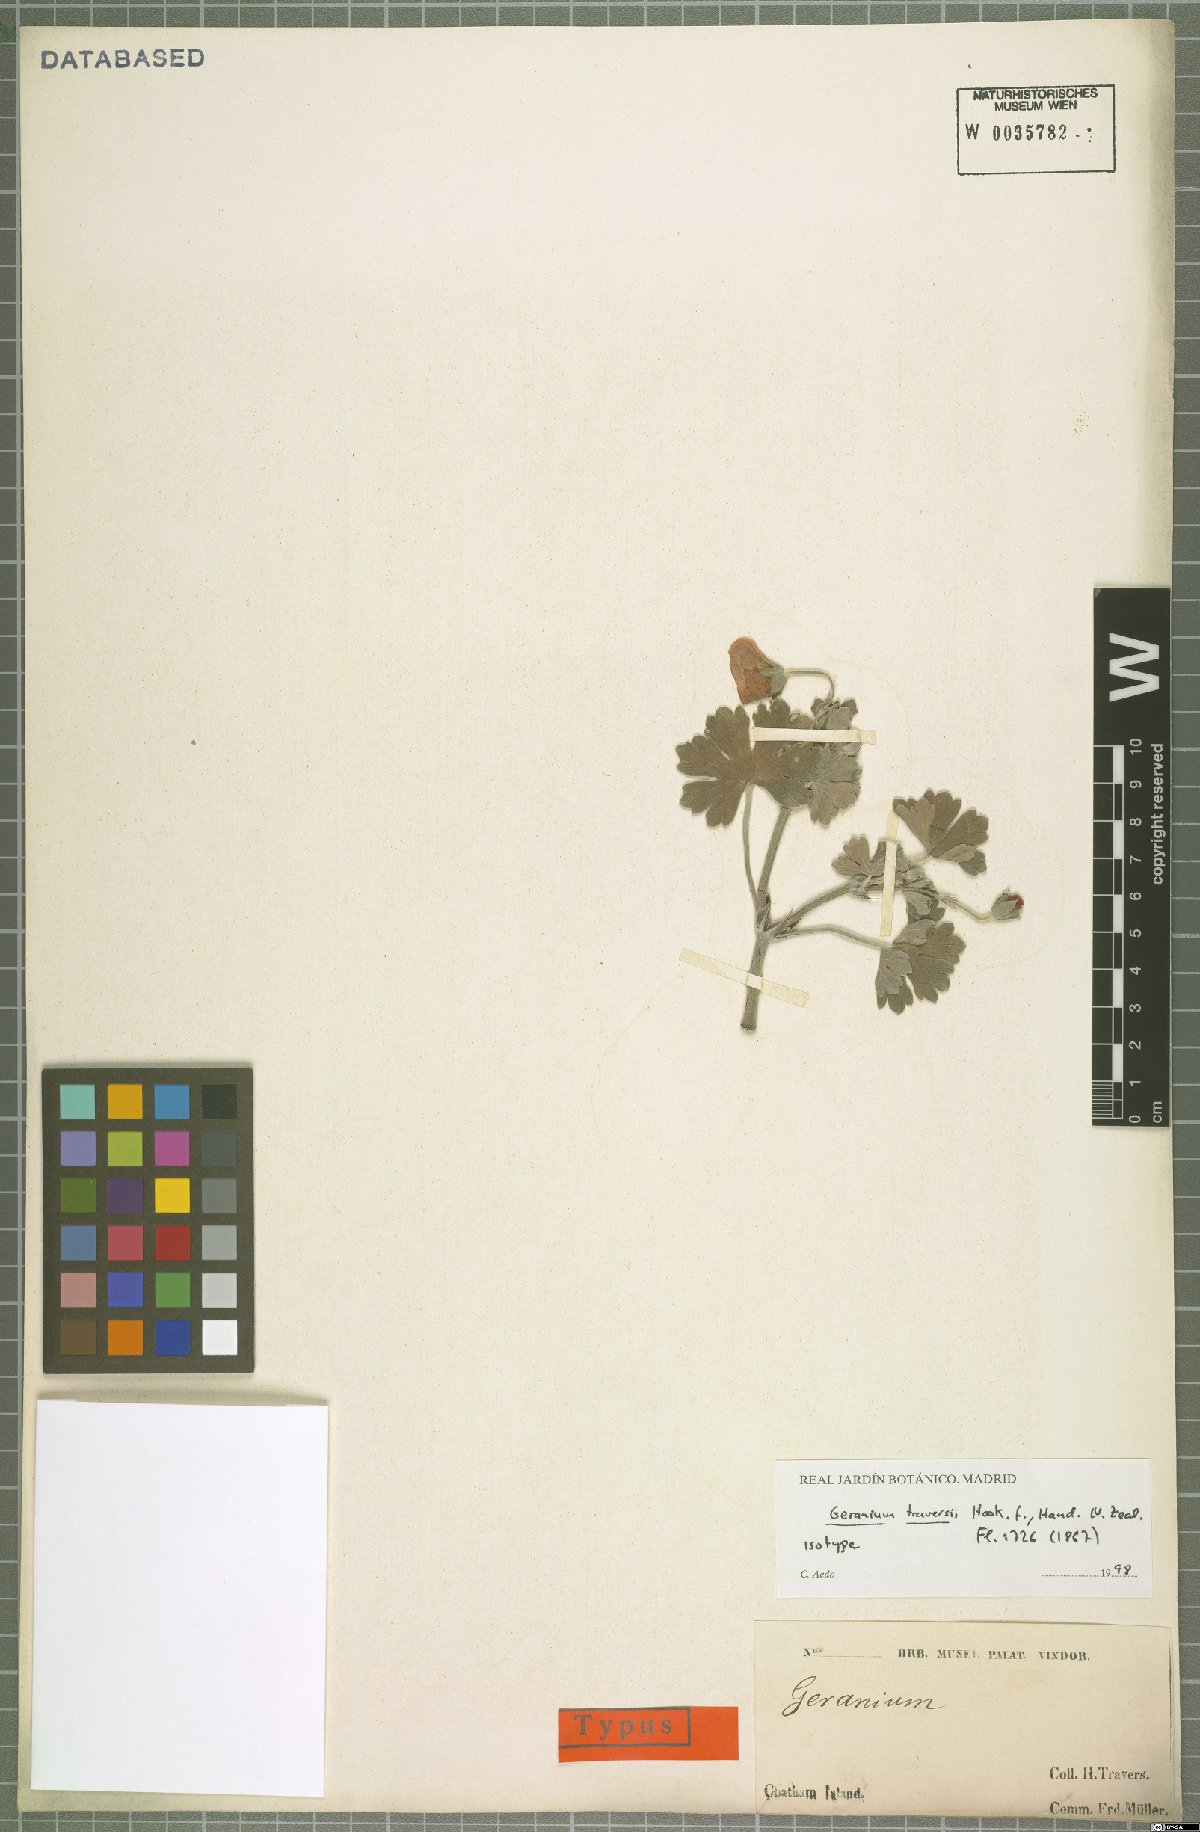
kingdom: Plantae
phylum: Tracheophyta
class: Magnoliopsida
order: Geraniales
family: Geraniaceae
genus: Geranium
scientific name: Geranium traversii
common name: Cranesbill
